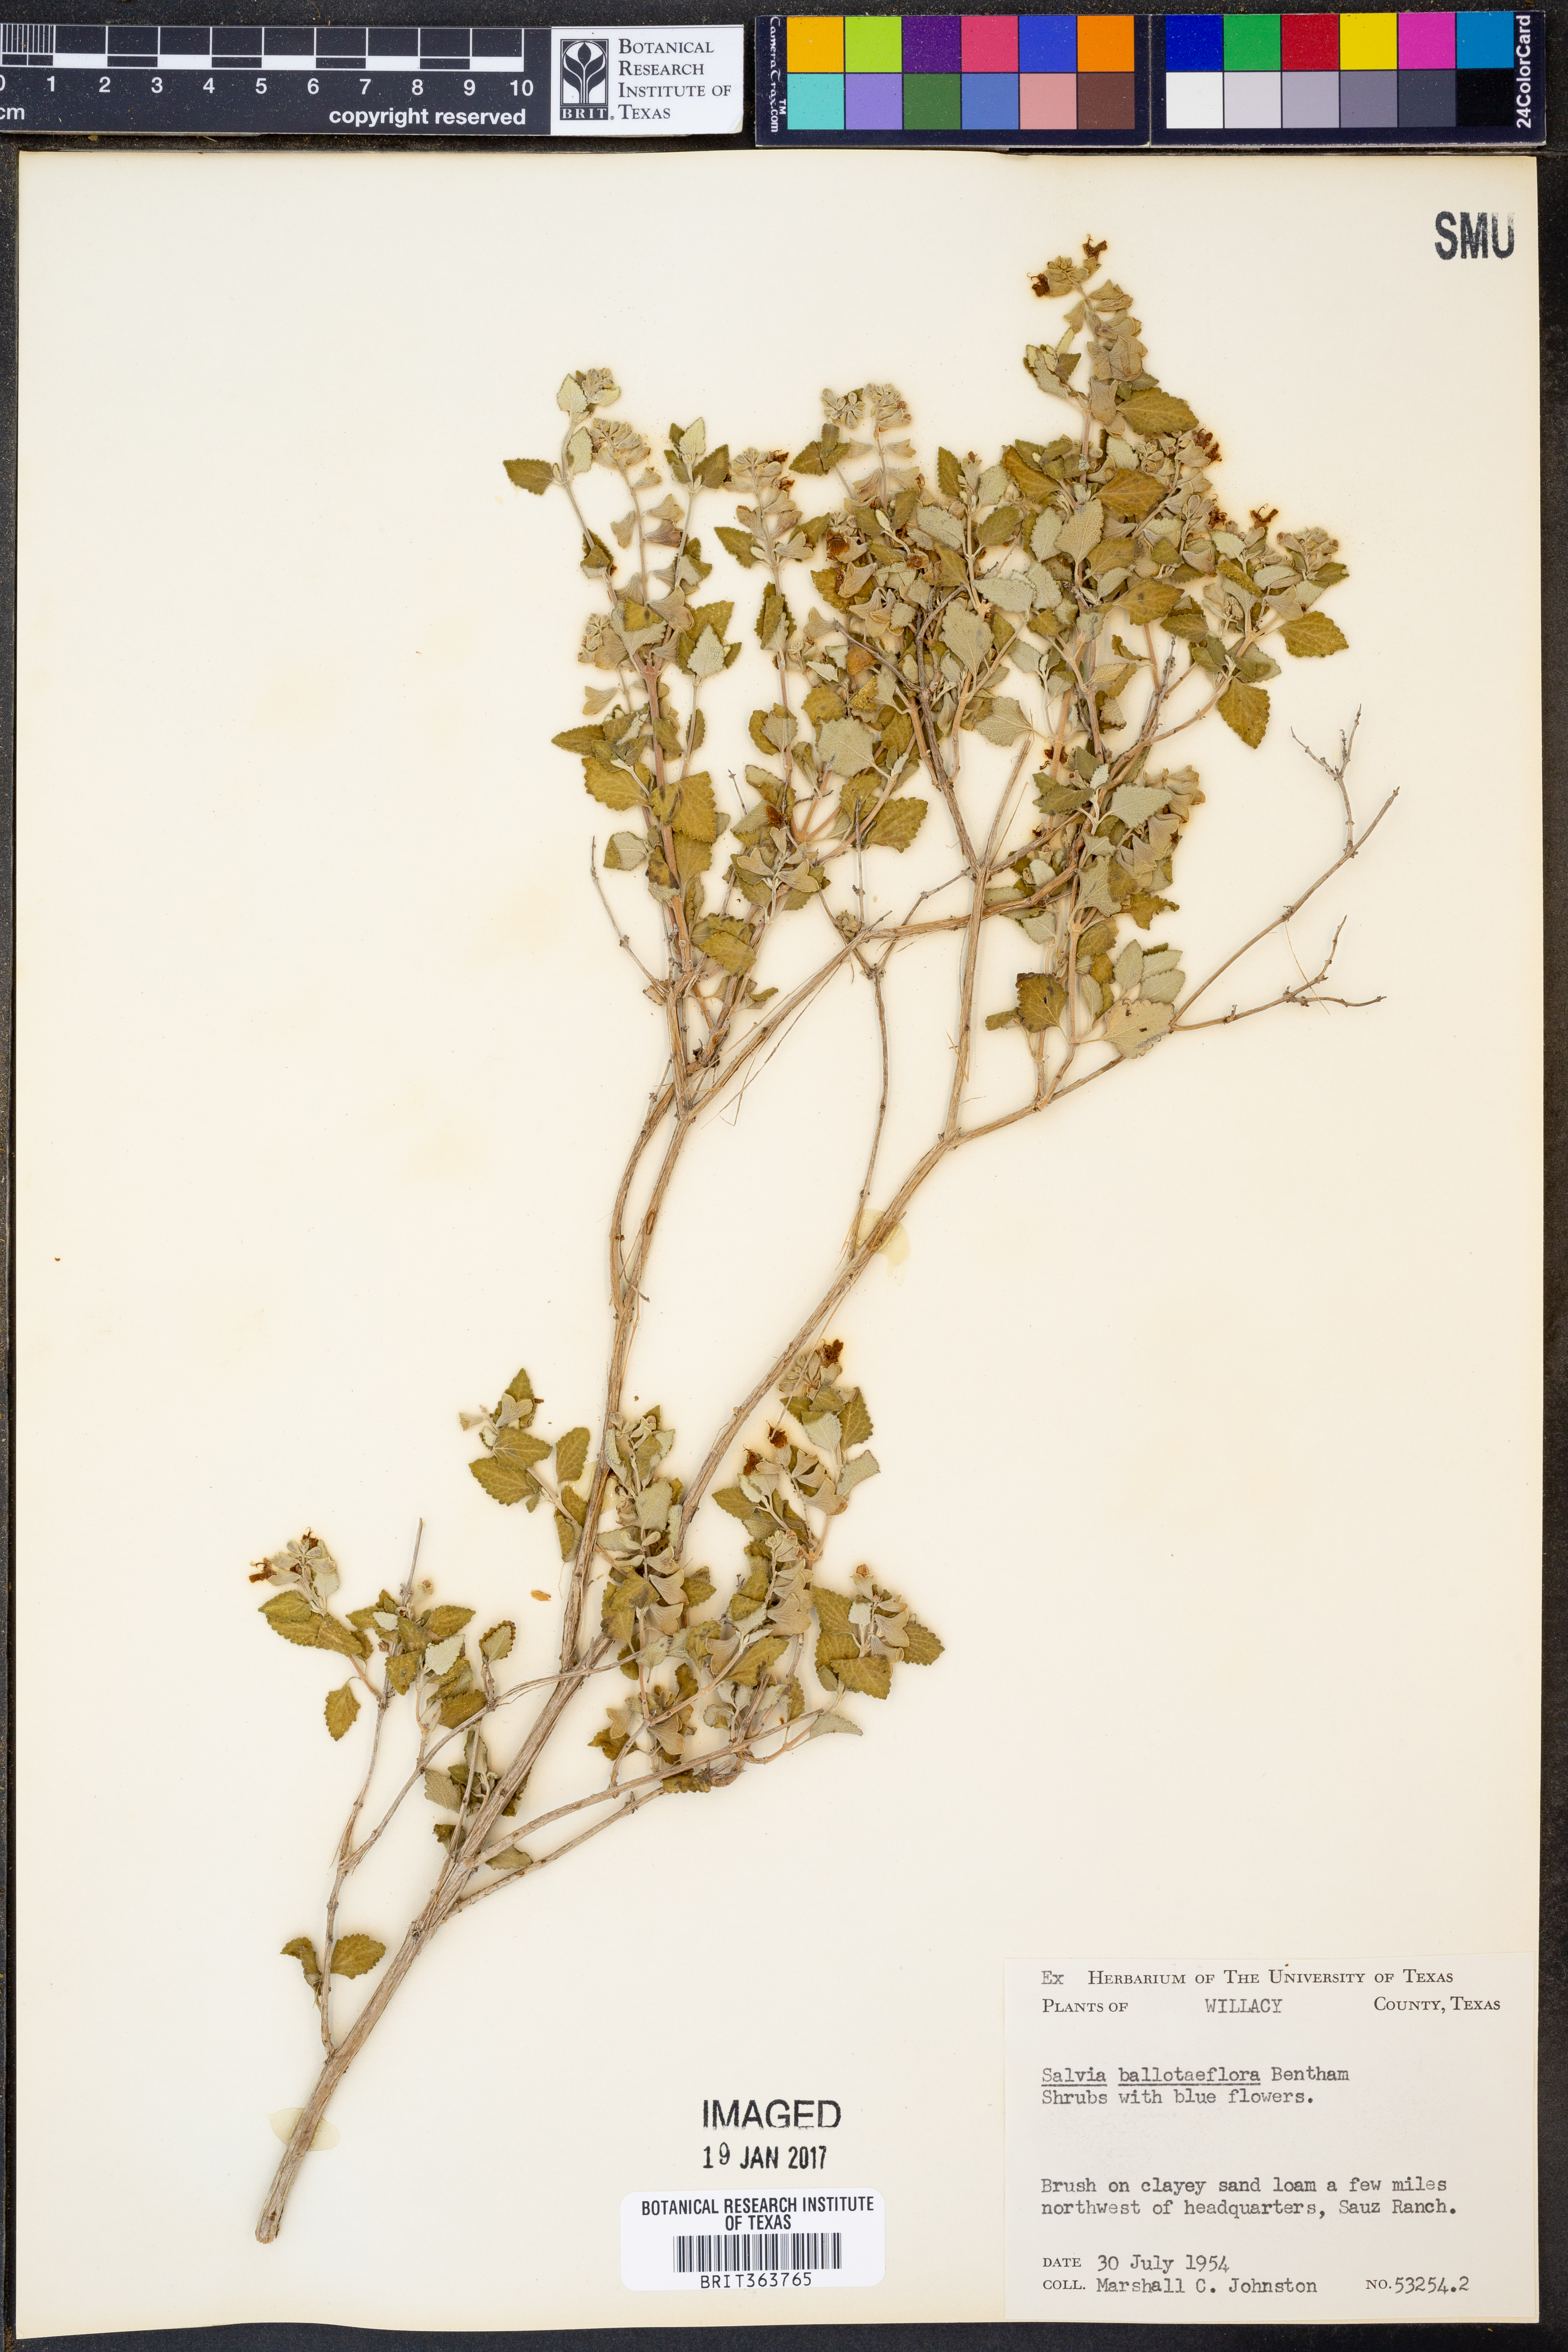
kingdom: Plantae
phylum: Tracheophyta
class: Magnoliopsida
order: Lamiales
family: Lamiaceae
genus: Salvia
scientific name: Salvia ballotiflora
